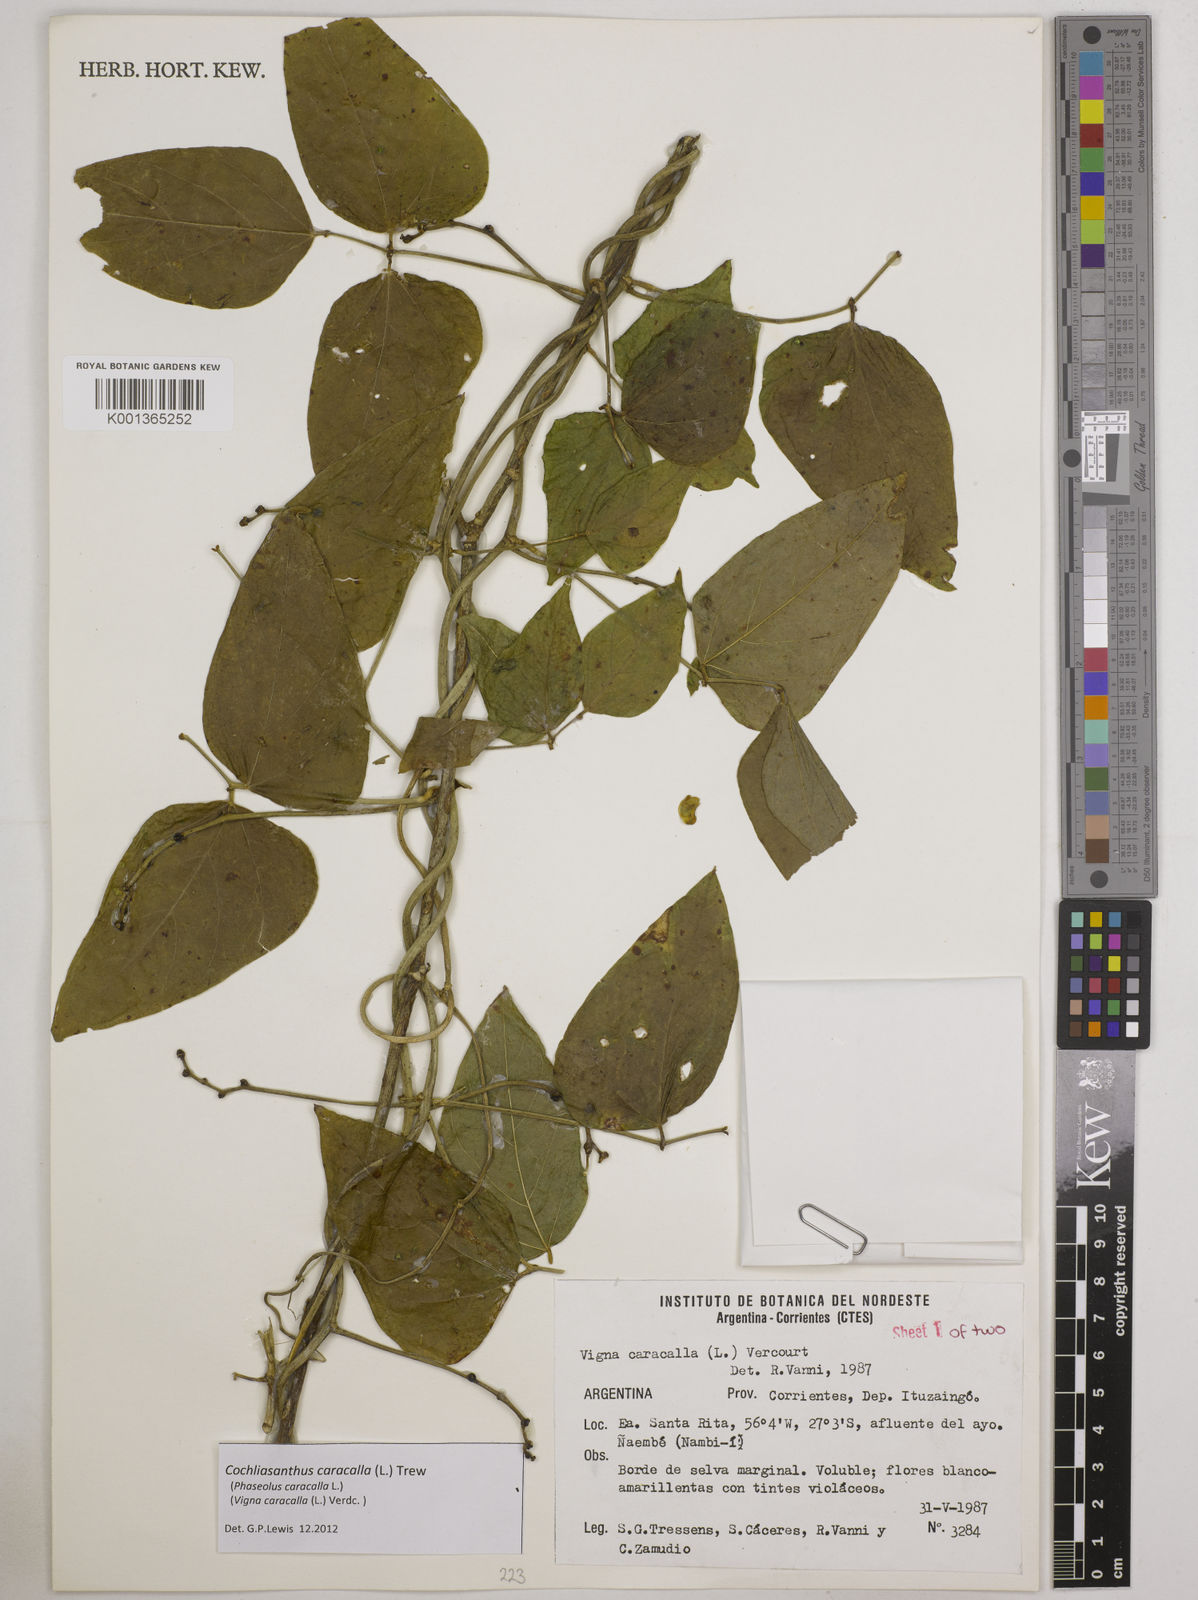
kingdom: Plantae
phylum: Tracheophyta
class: Magnoliopsida
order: Fabales
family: Fabaceae
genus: Cochliasanthus
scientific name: Cochliasanthus caracalla
